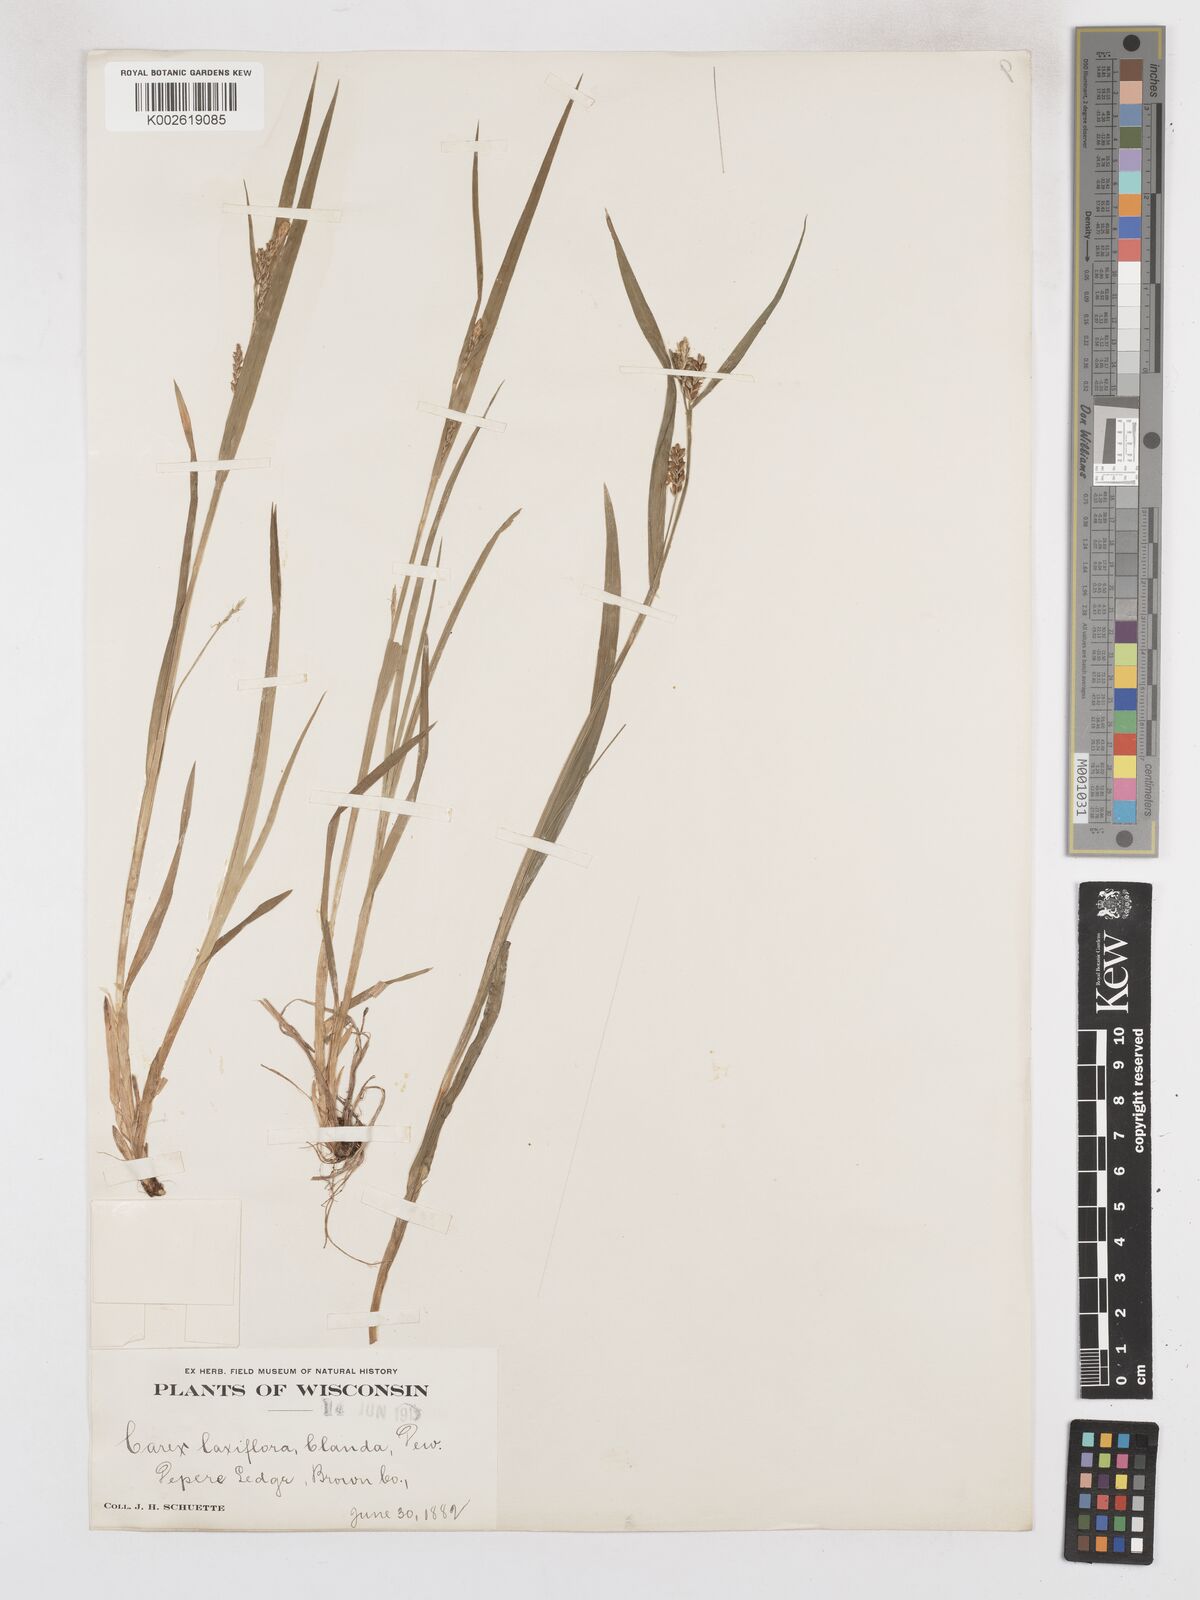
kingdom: Plantae
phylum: Tracheophyta
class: Liliopsida
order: Poales
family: Cyperaceae
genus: Carex
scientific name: Carex blanda
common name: Bland sedge
